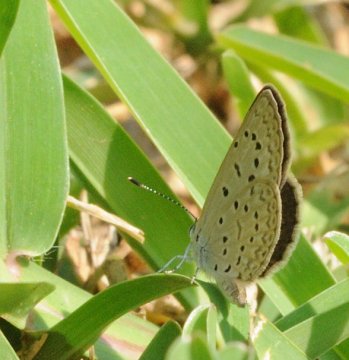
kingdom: Animalia
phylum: Arthropoda
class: Insecta
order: Lepidoptera
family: Lycaenidae
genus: Zizeeria
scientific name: Zizeeria knysna
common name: Dark Grass Blue
